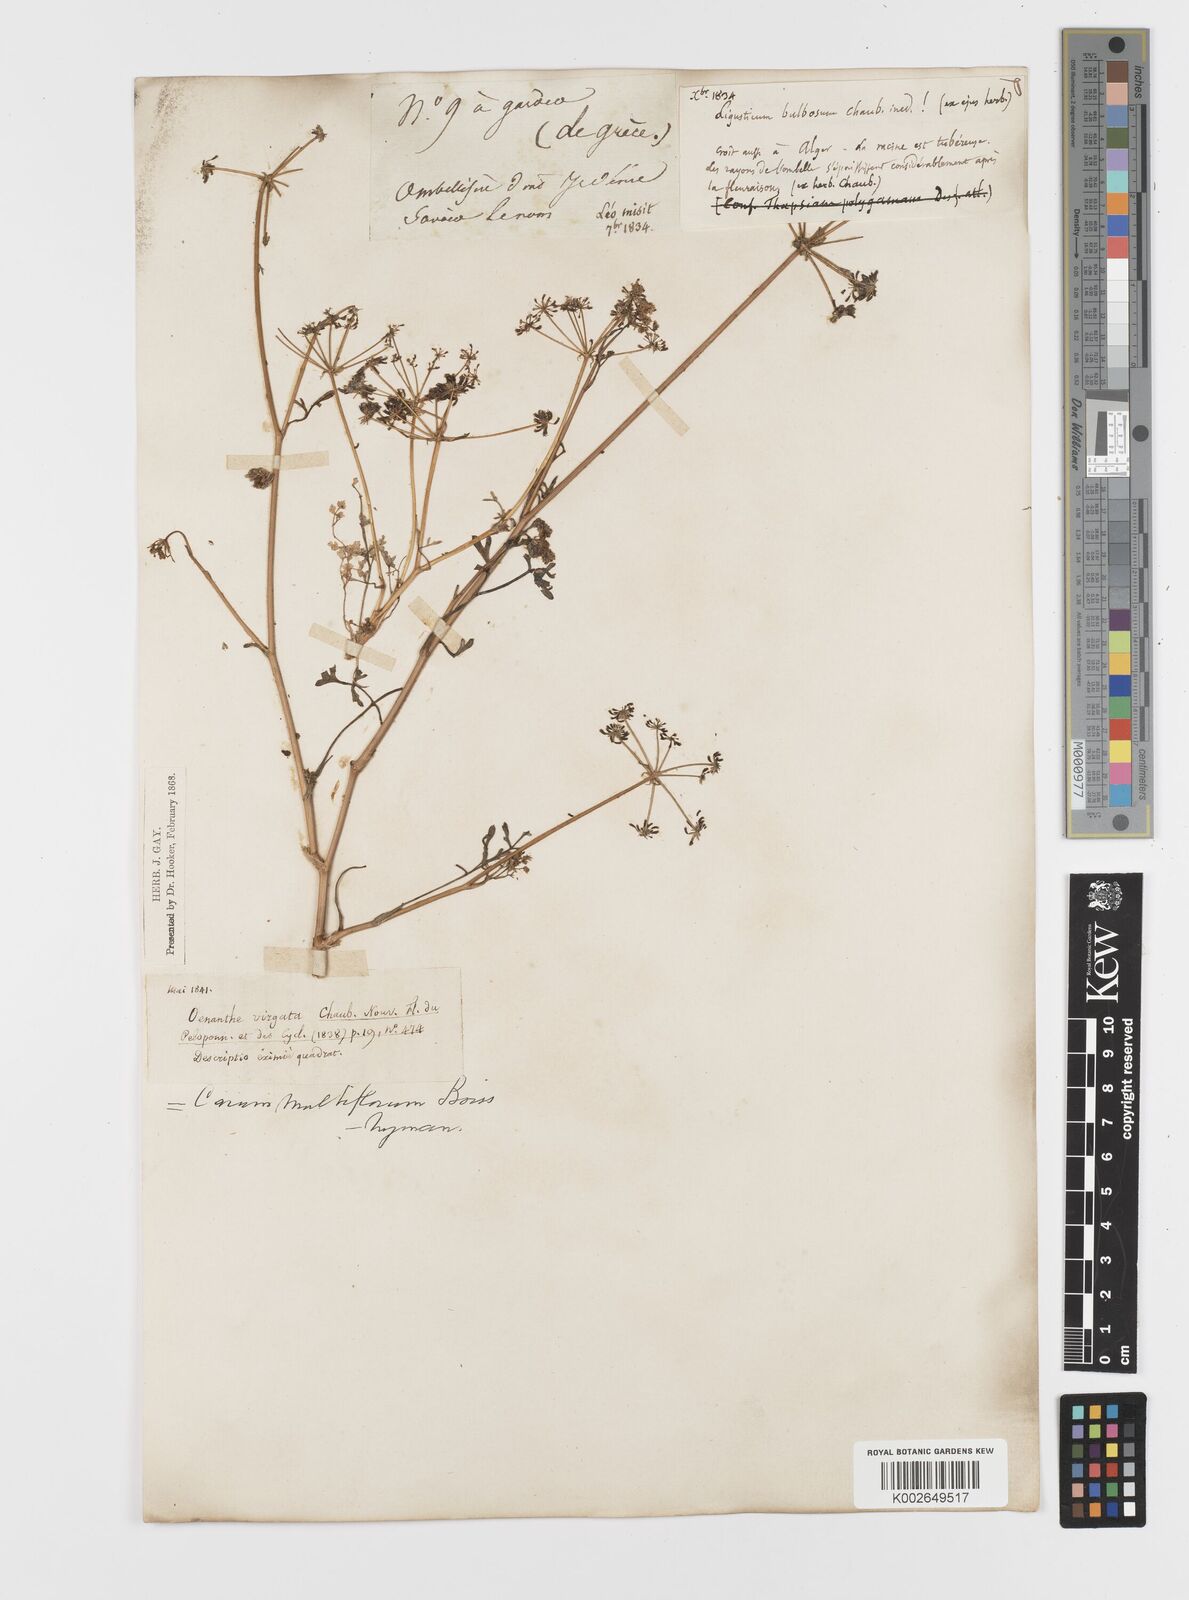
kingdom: Plantae
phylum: Tracheophyta
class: Magnoliopsida
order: Apiales
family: Apiaceae
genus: Hellenocarum
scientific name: Hellenocarum multiflorum
